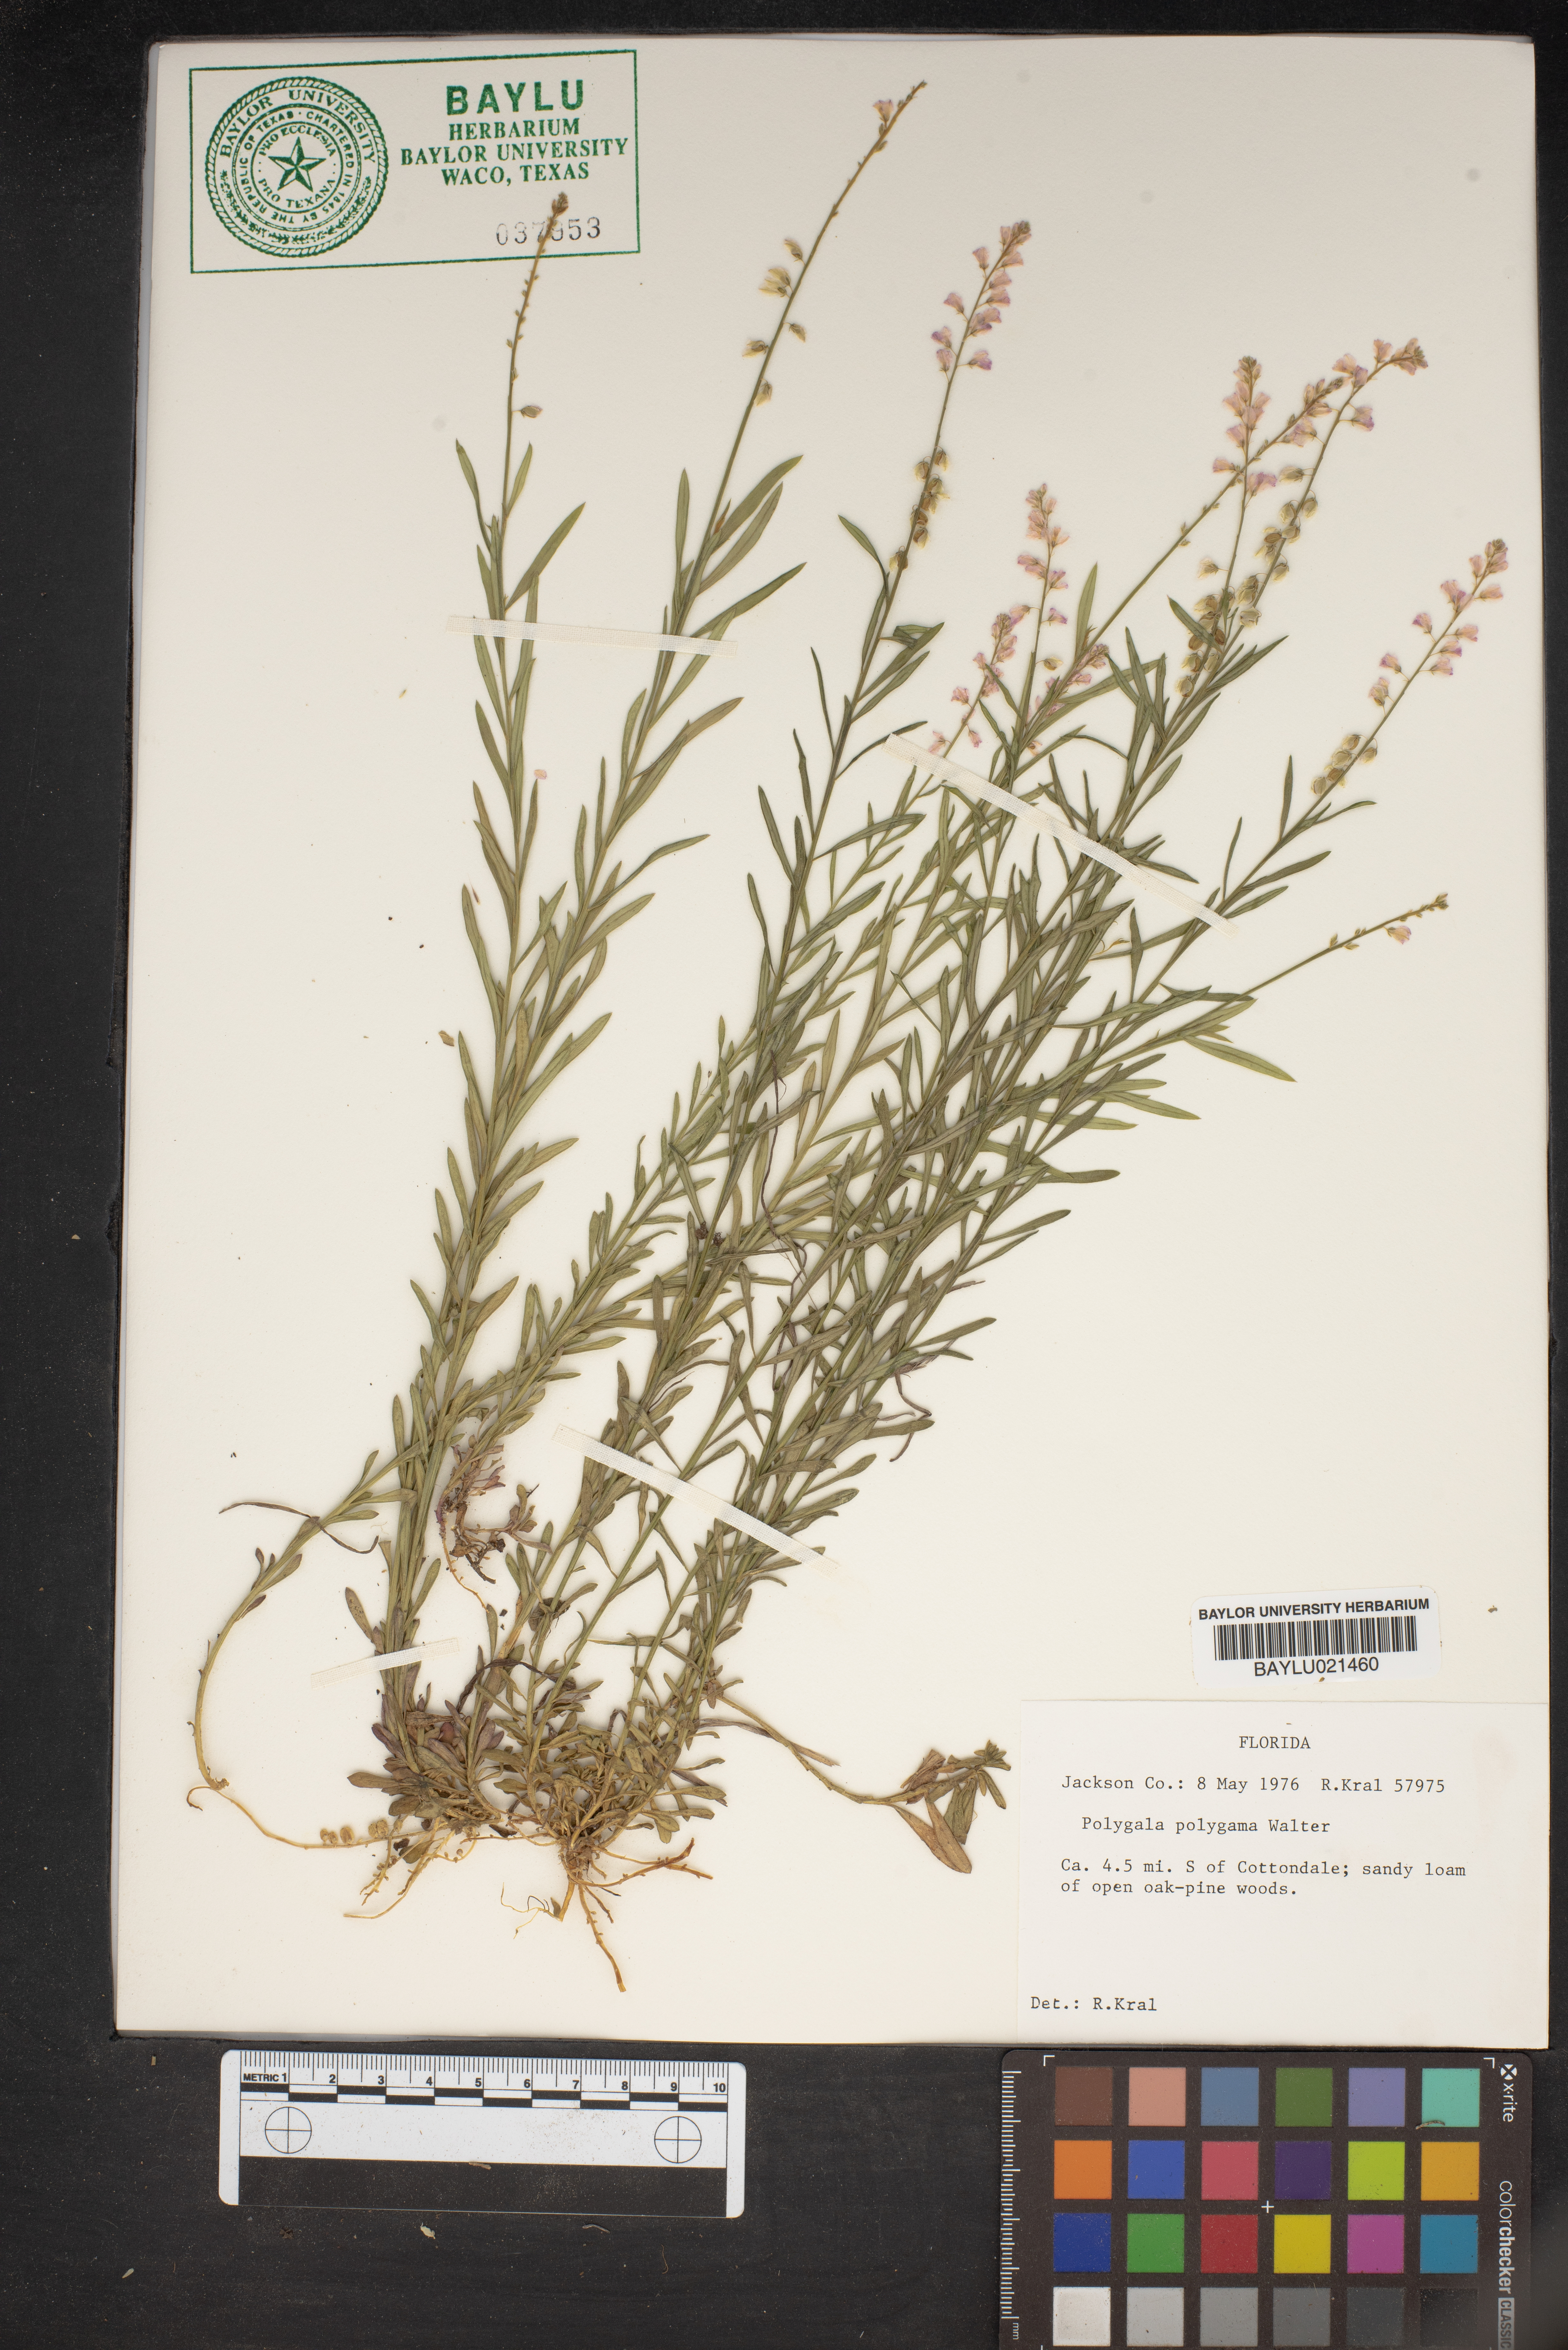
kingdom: Plantae
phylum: Tracheophyta
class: Magnoliopsida
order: Fabales
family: Polygalaceae
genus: Polygala
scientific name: Polygala polygama
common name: Bitter milkwort
